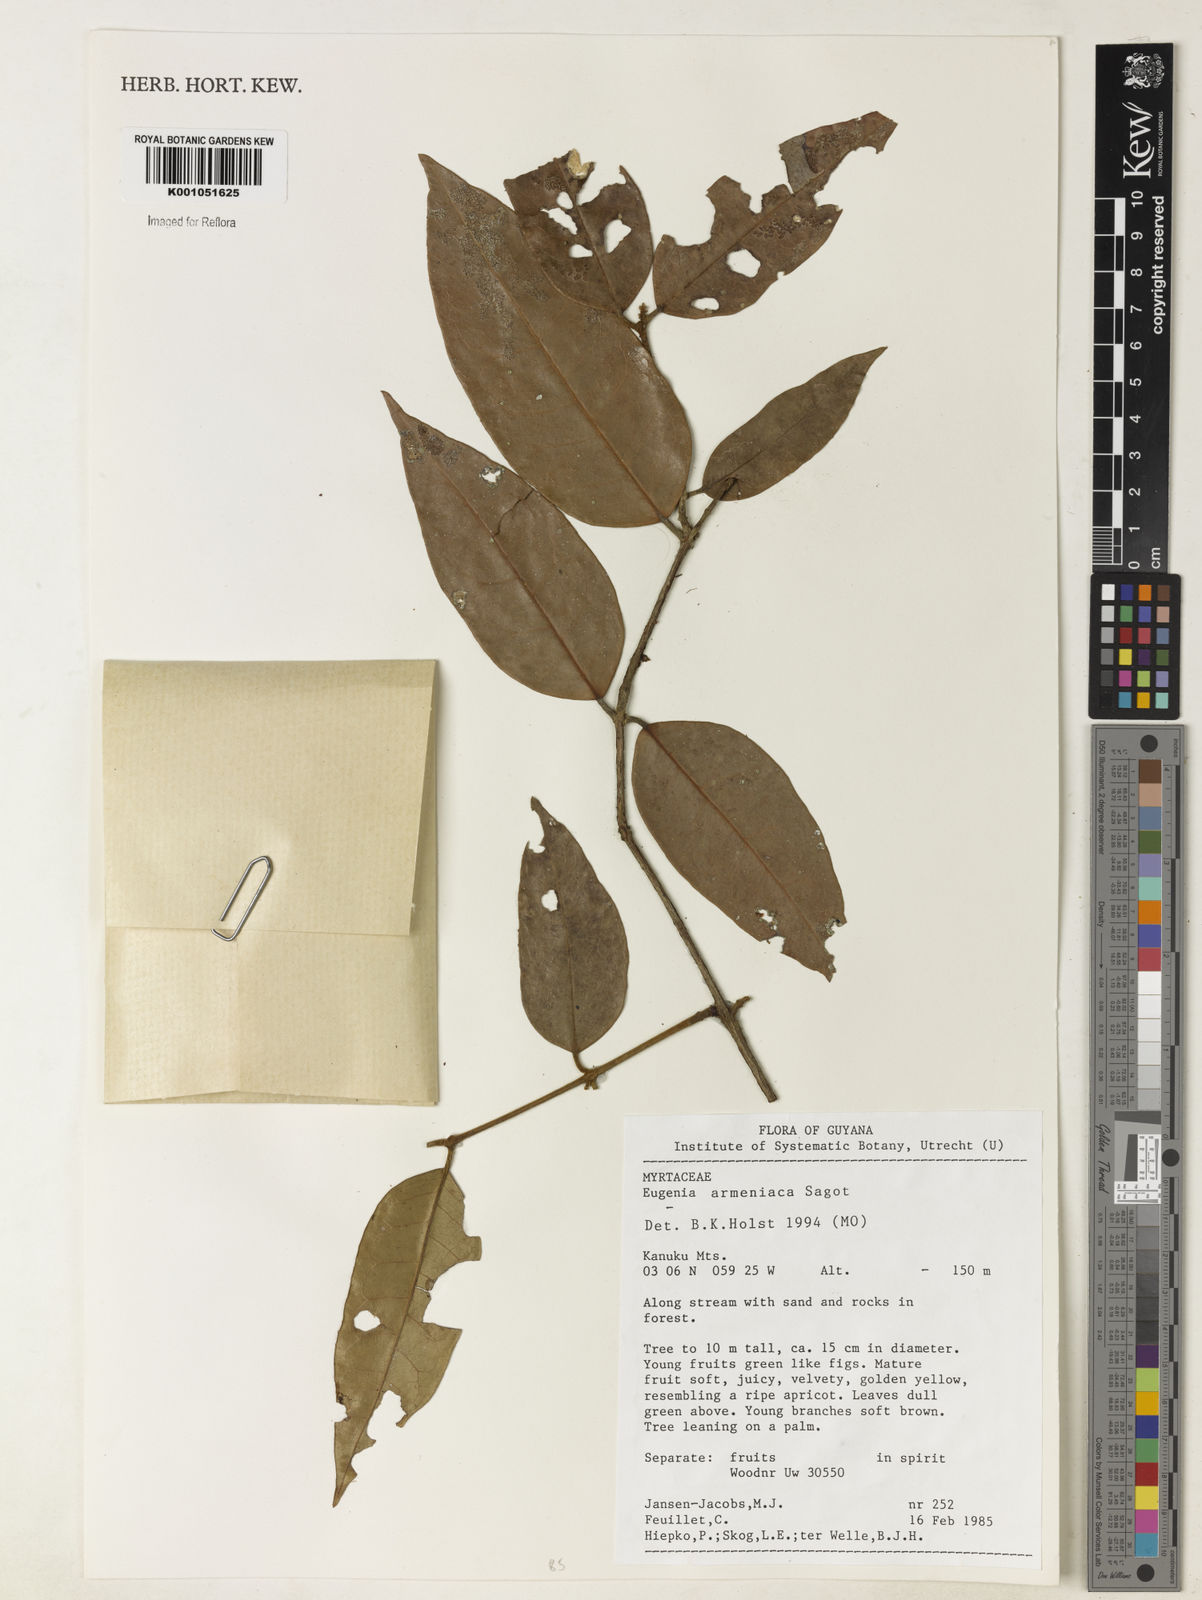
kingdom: Plantae
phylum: Tracheophyta
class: Magnoliopsida
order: Myrtales
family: Myrtaceae
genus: Eugenia
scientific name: Eugenia armeniaca
